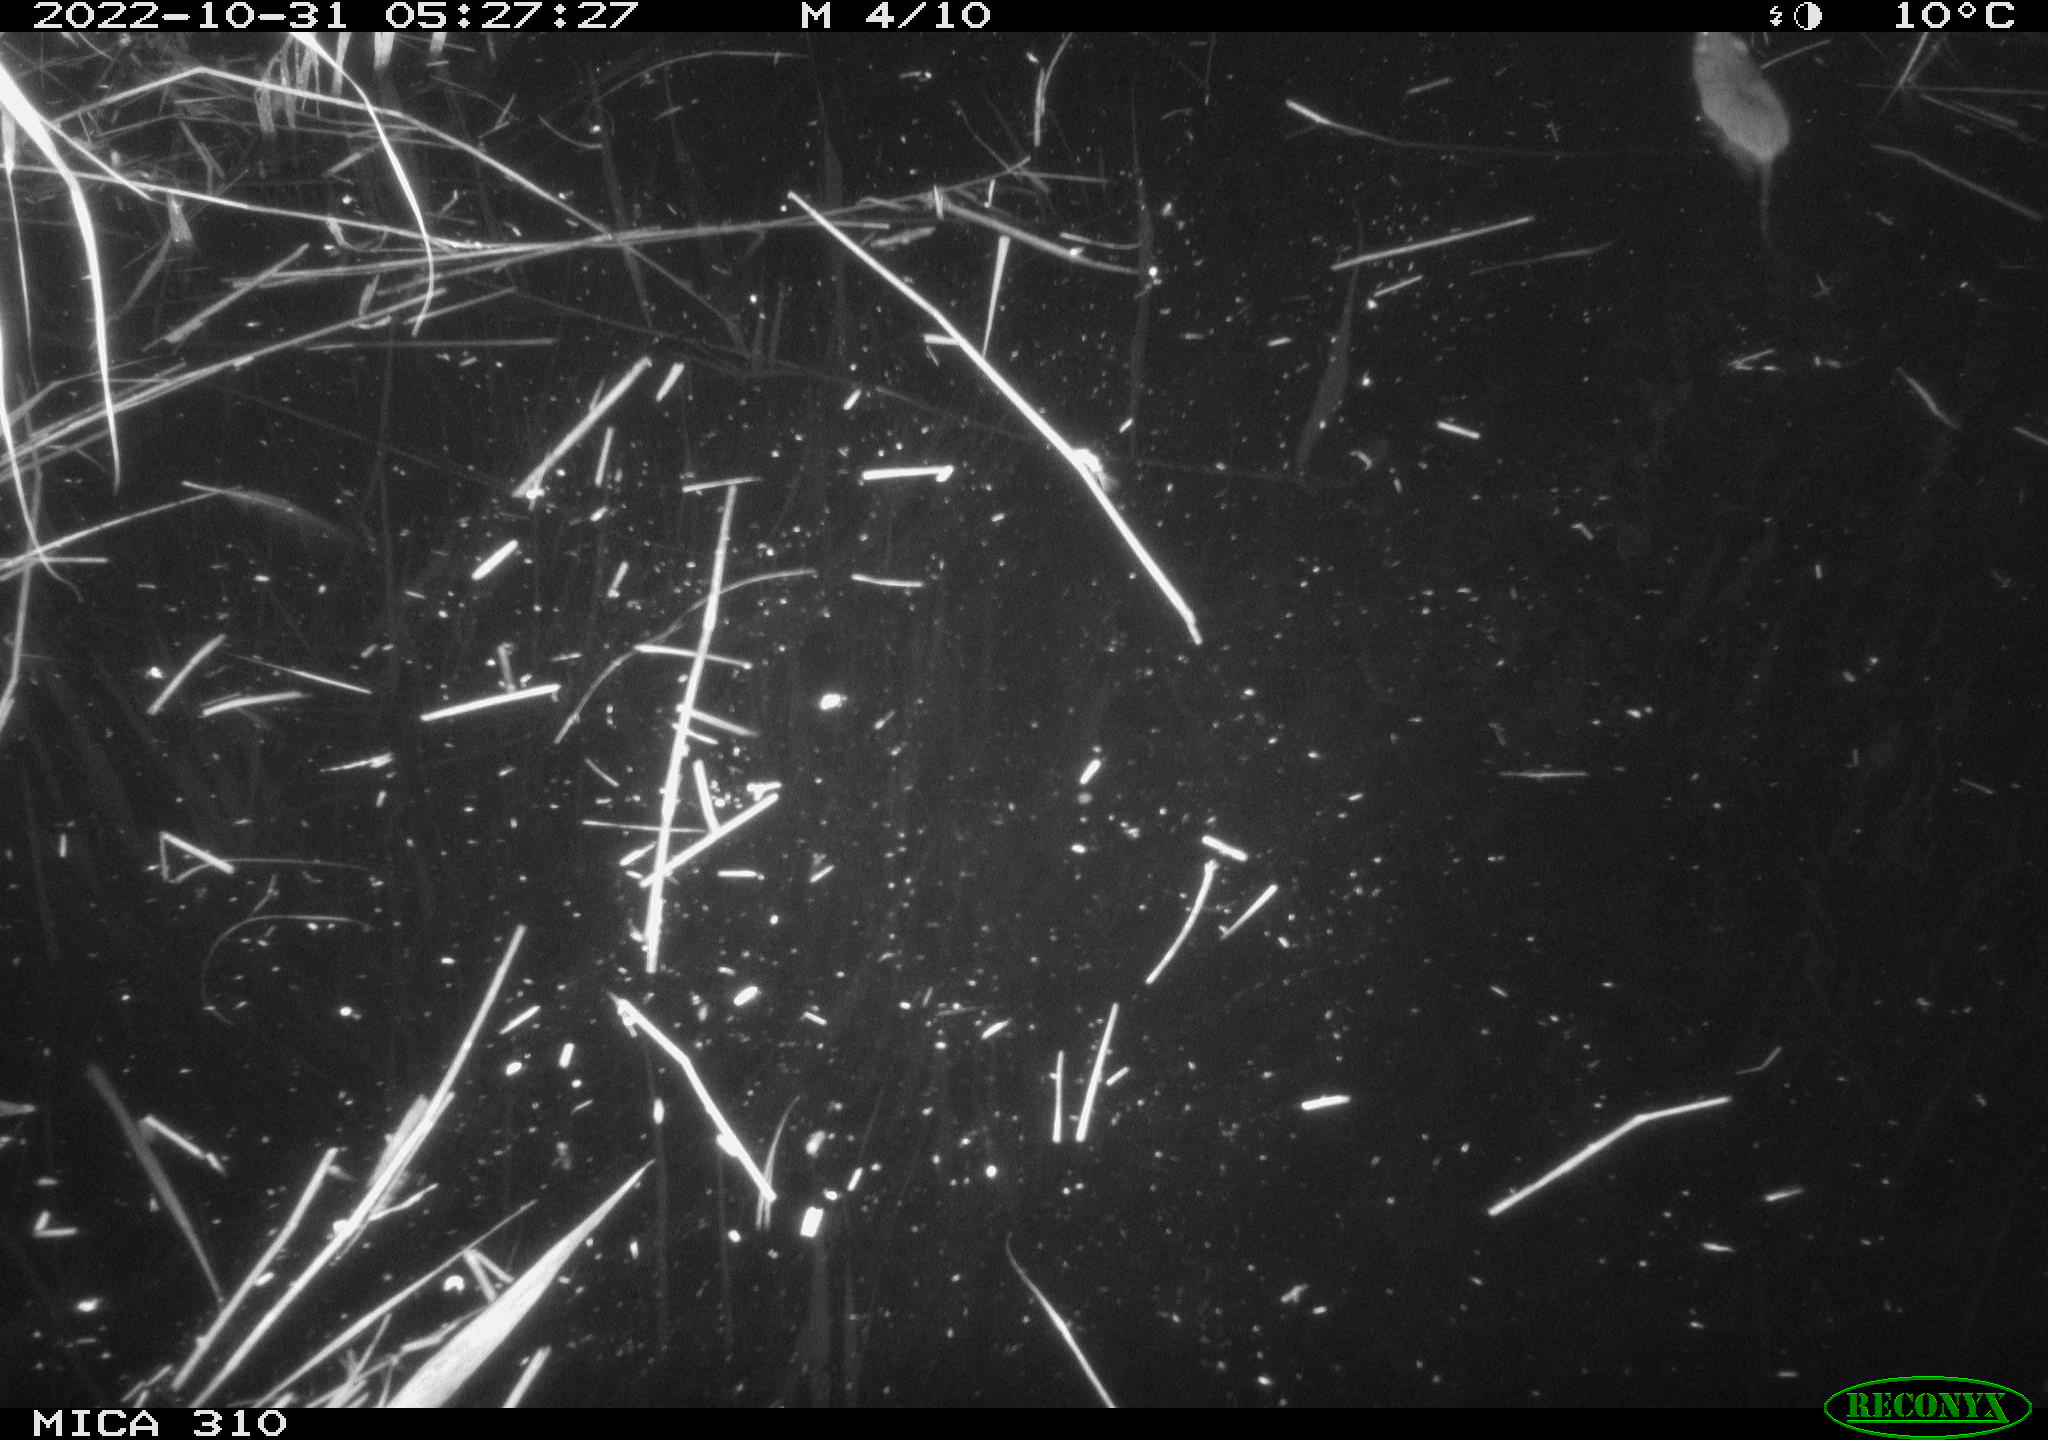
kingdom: Animalia
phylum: Chordata
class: Mammalia
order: Rodentia
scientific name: Rodentia
